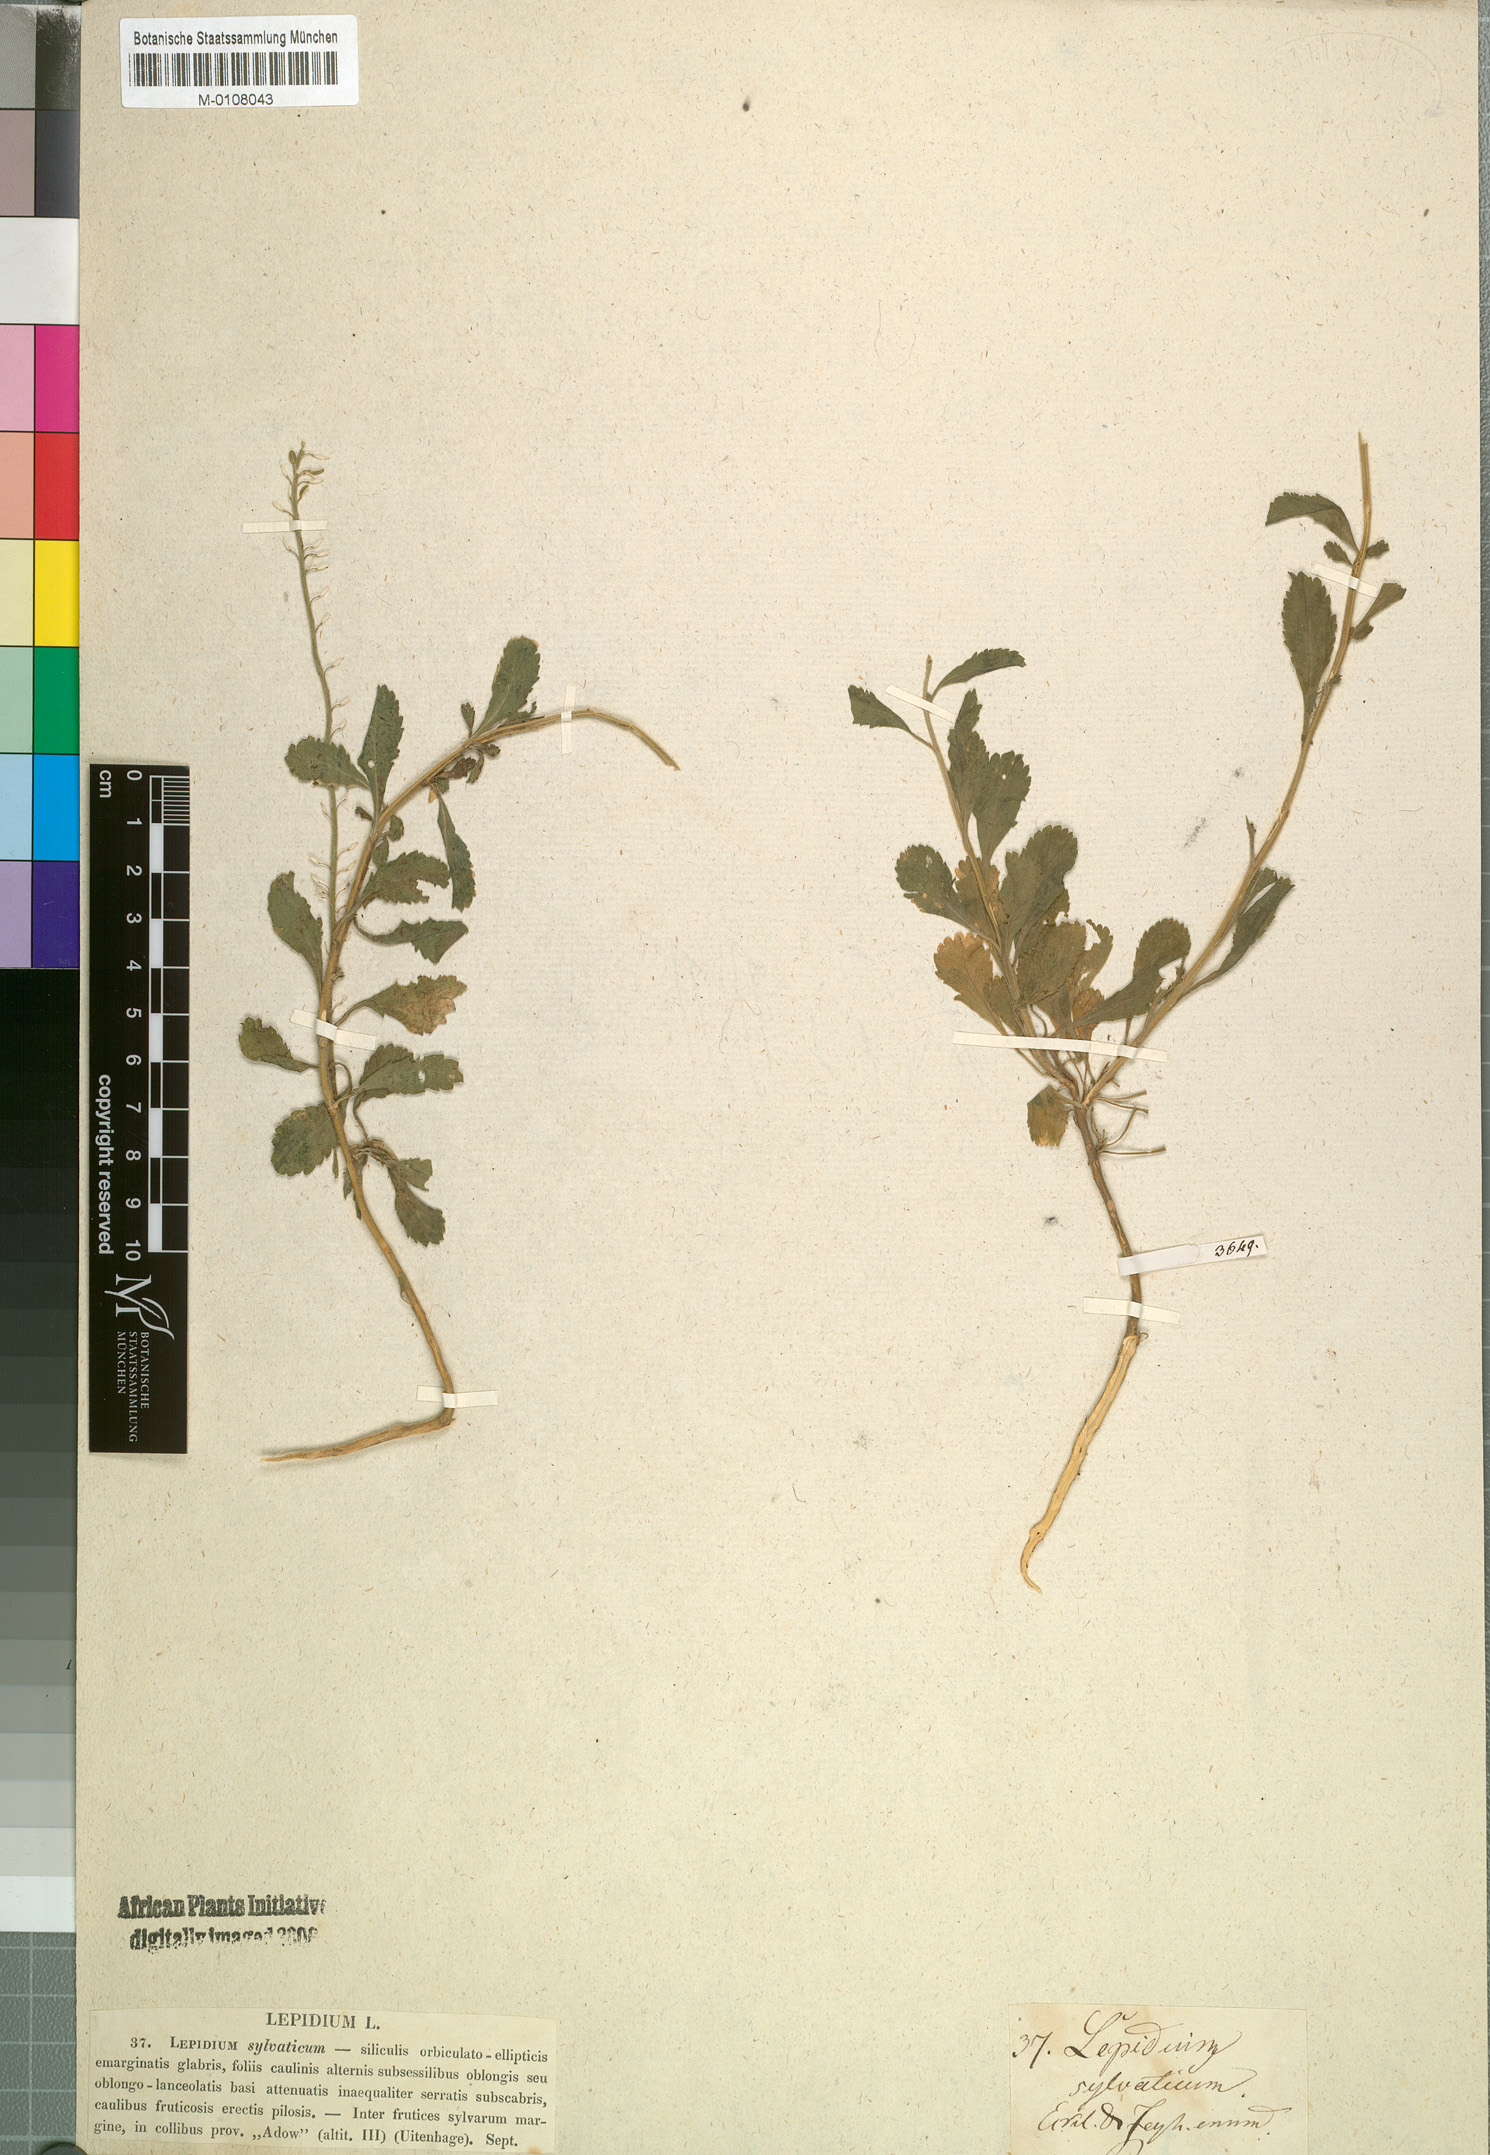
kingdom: Plantae
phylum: Tracheophyta
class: Magnoliopsida
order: Brassicales
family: Brassicaceae
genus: Lepidium
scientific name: Lepidium ecklonii
